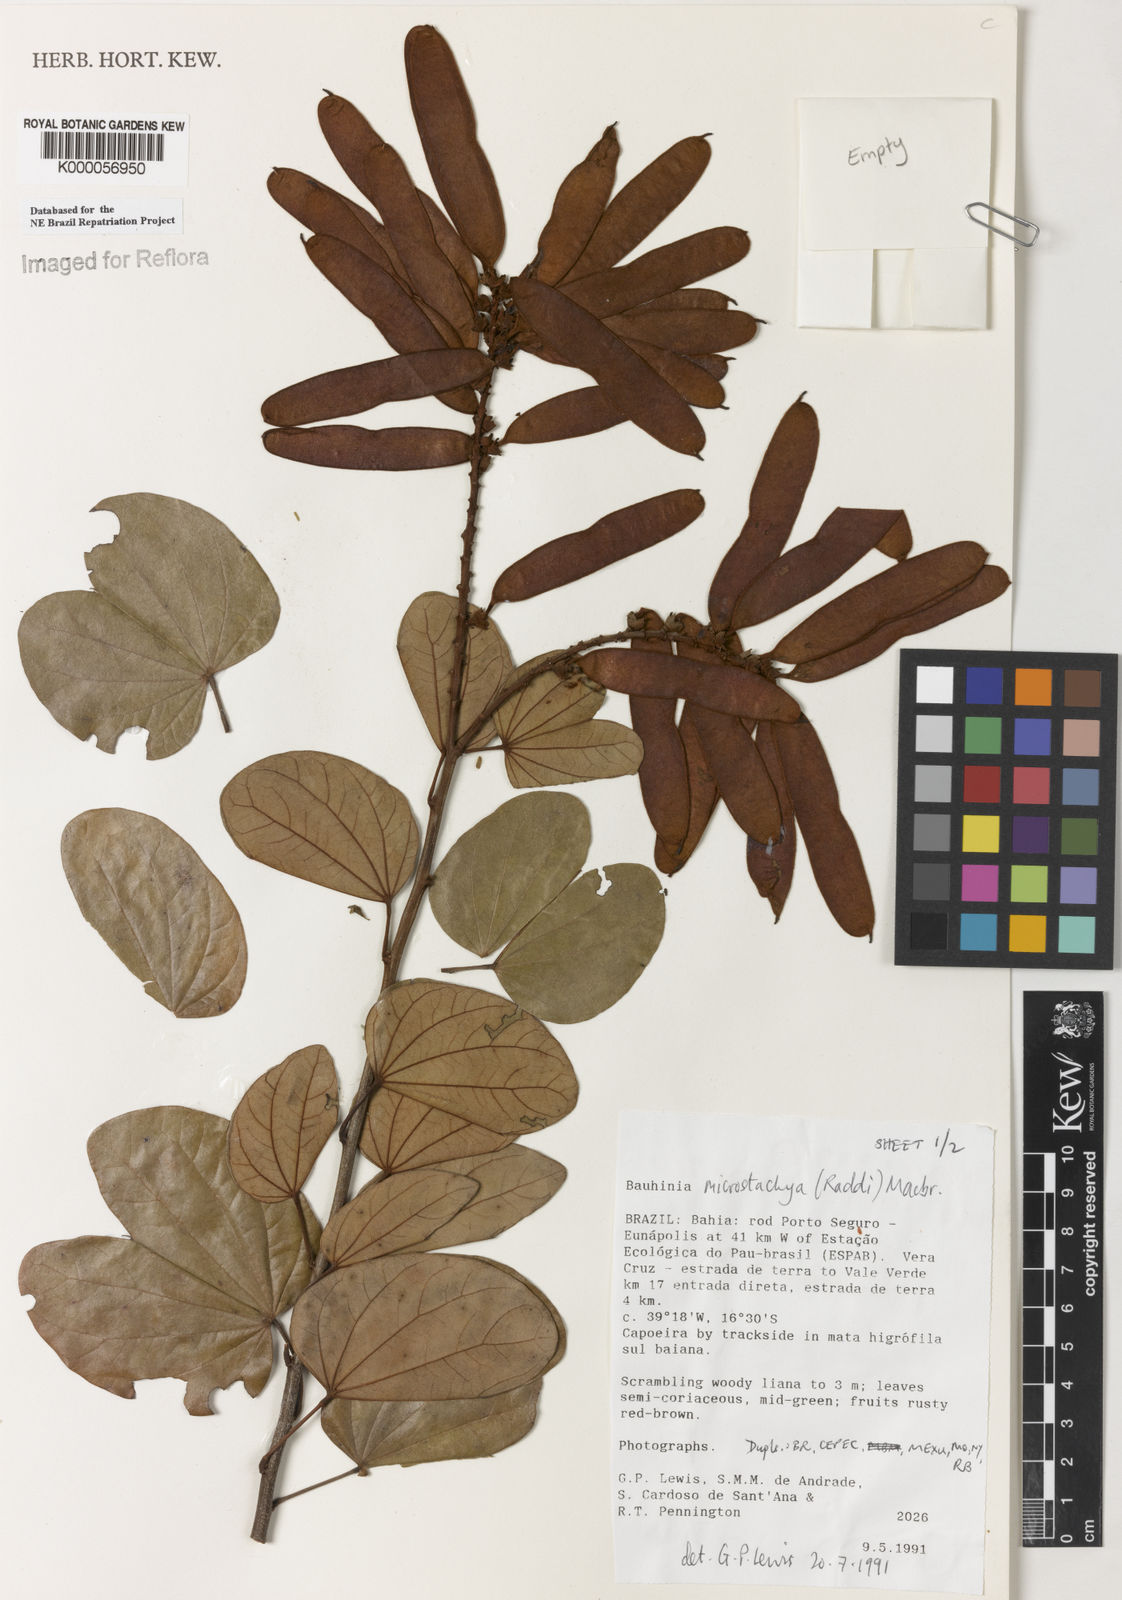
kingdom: Plantae
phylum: Tracheophyta
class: Magnoliopsida
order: Fabales
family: Fabaceae
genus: Schnella
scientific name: Schnella microstachya
